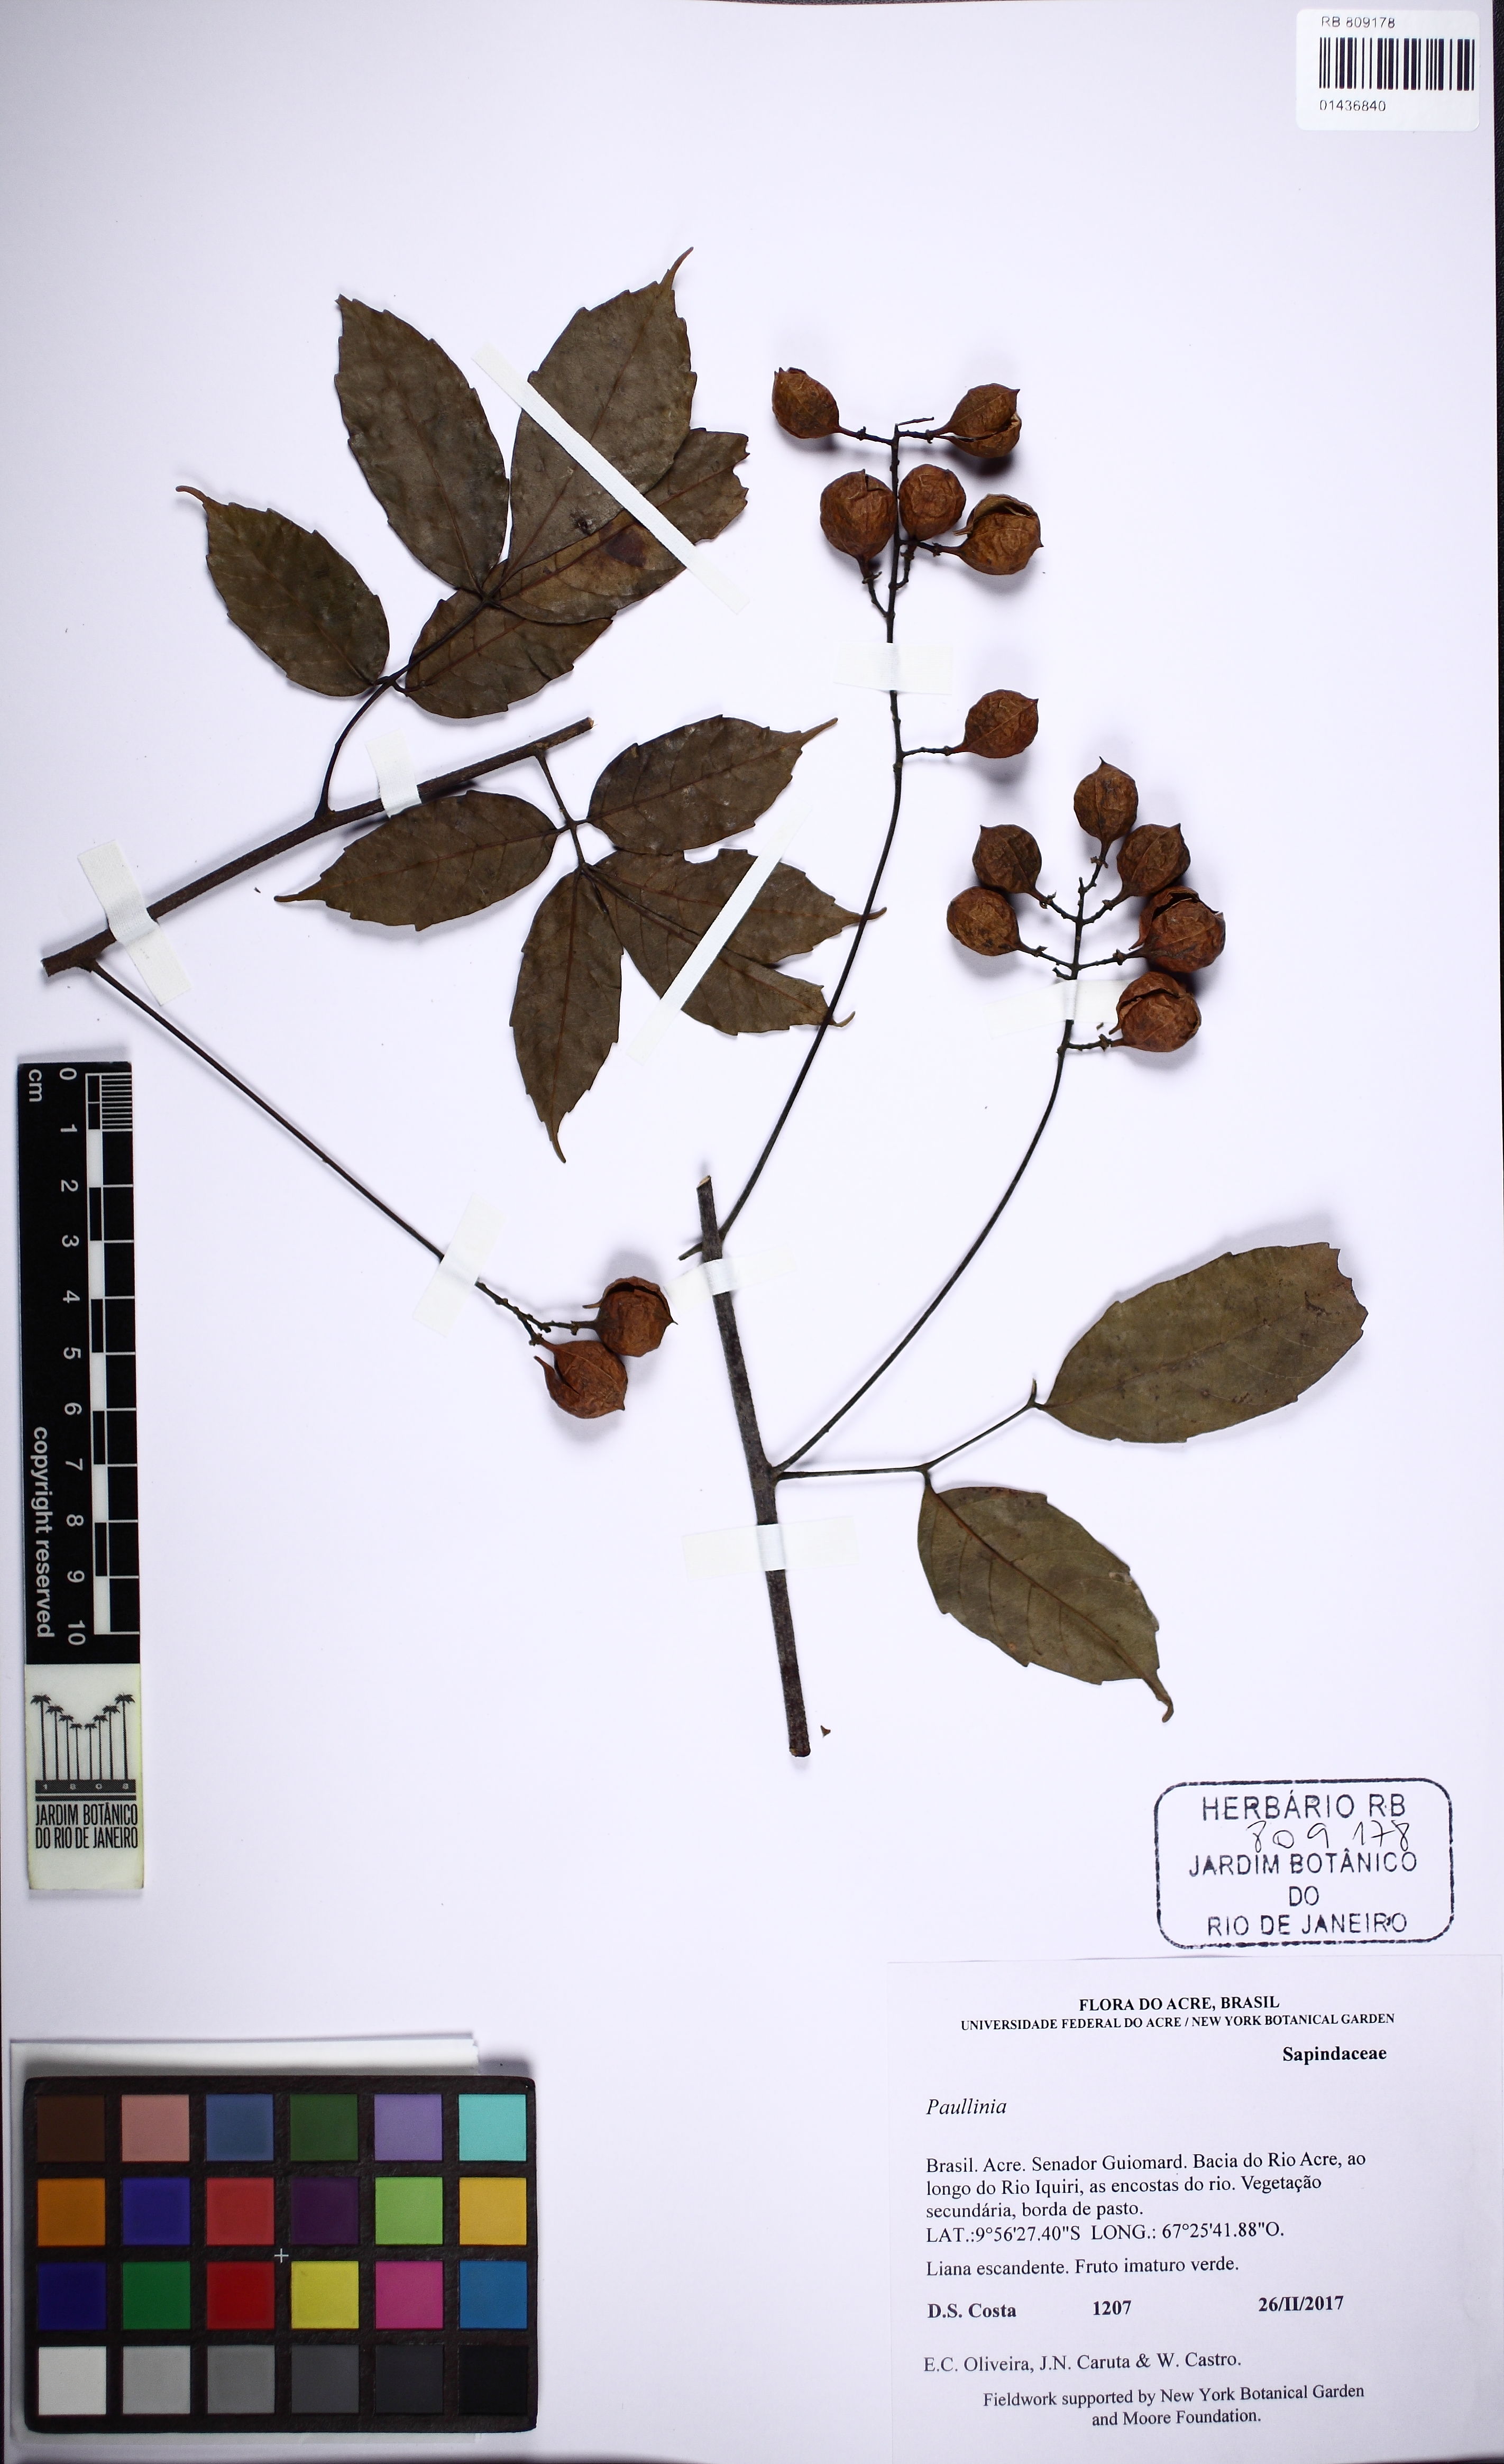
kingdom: Plantae
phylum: Tracheophyta
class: Magnoliopsida
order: Sapindales
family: Sapindaceae
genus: Paullinia
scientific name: Paullinia
